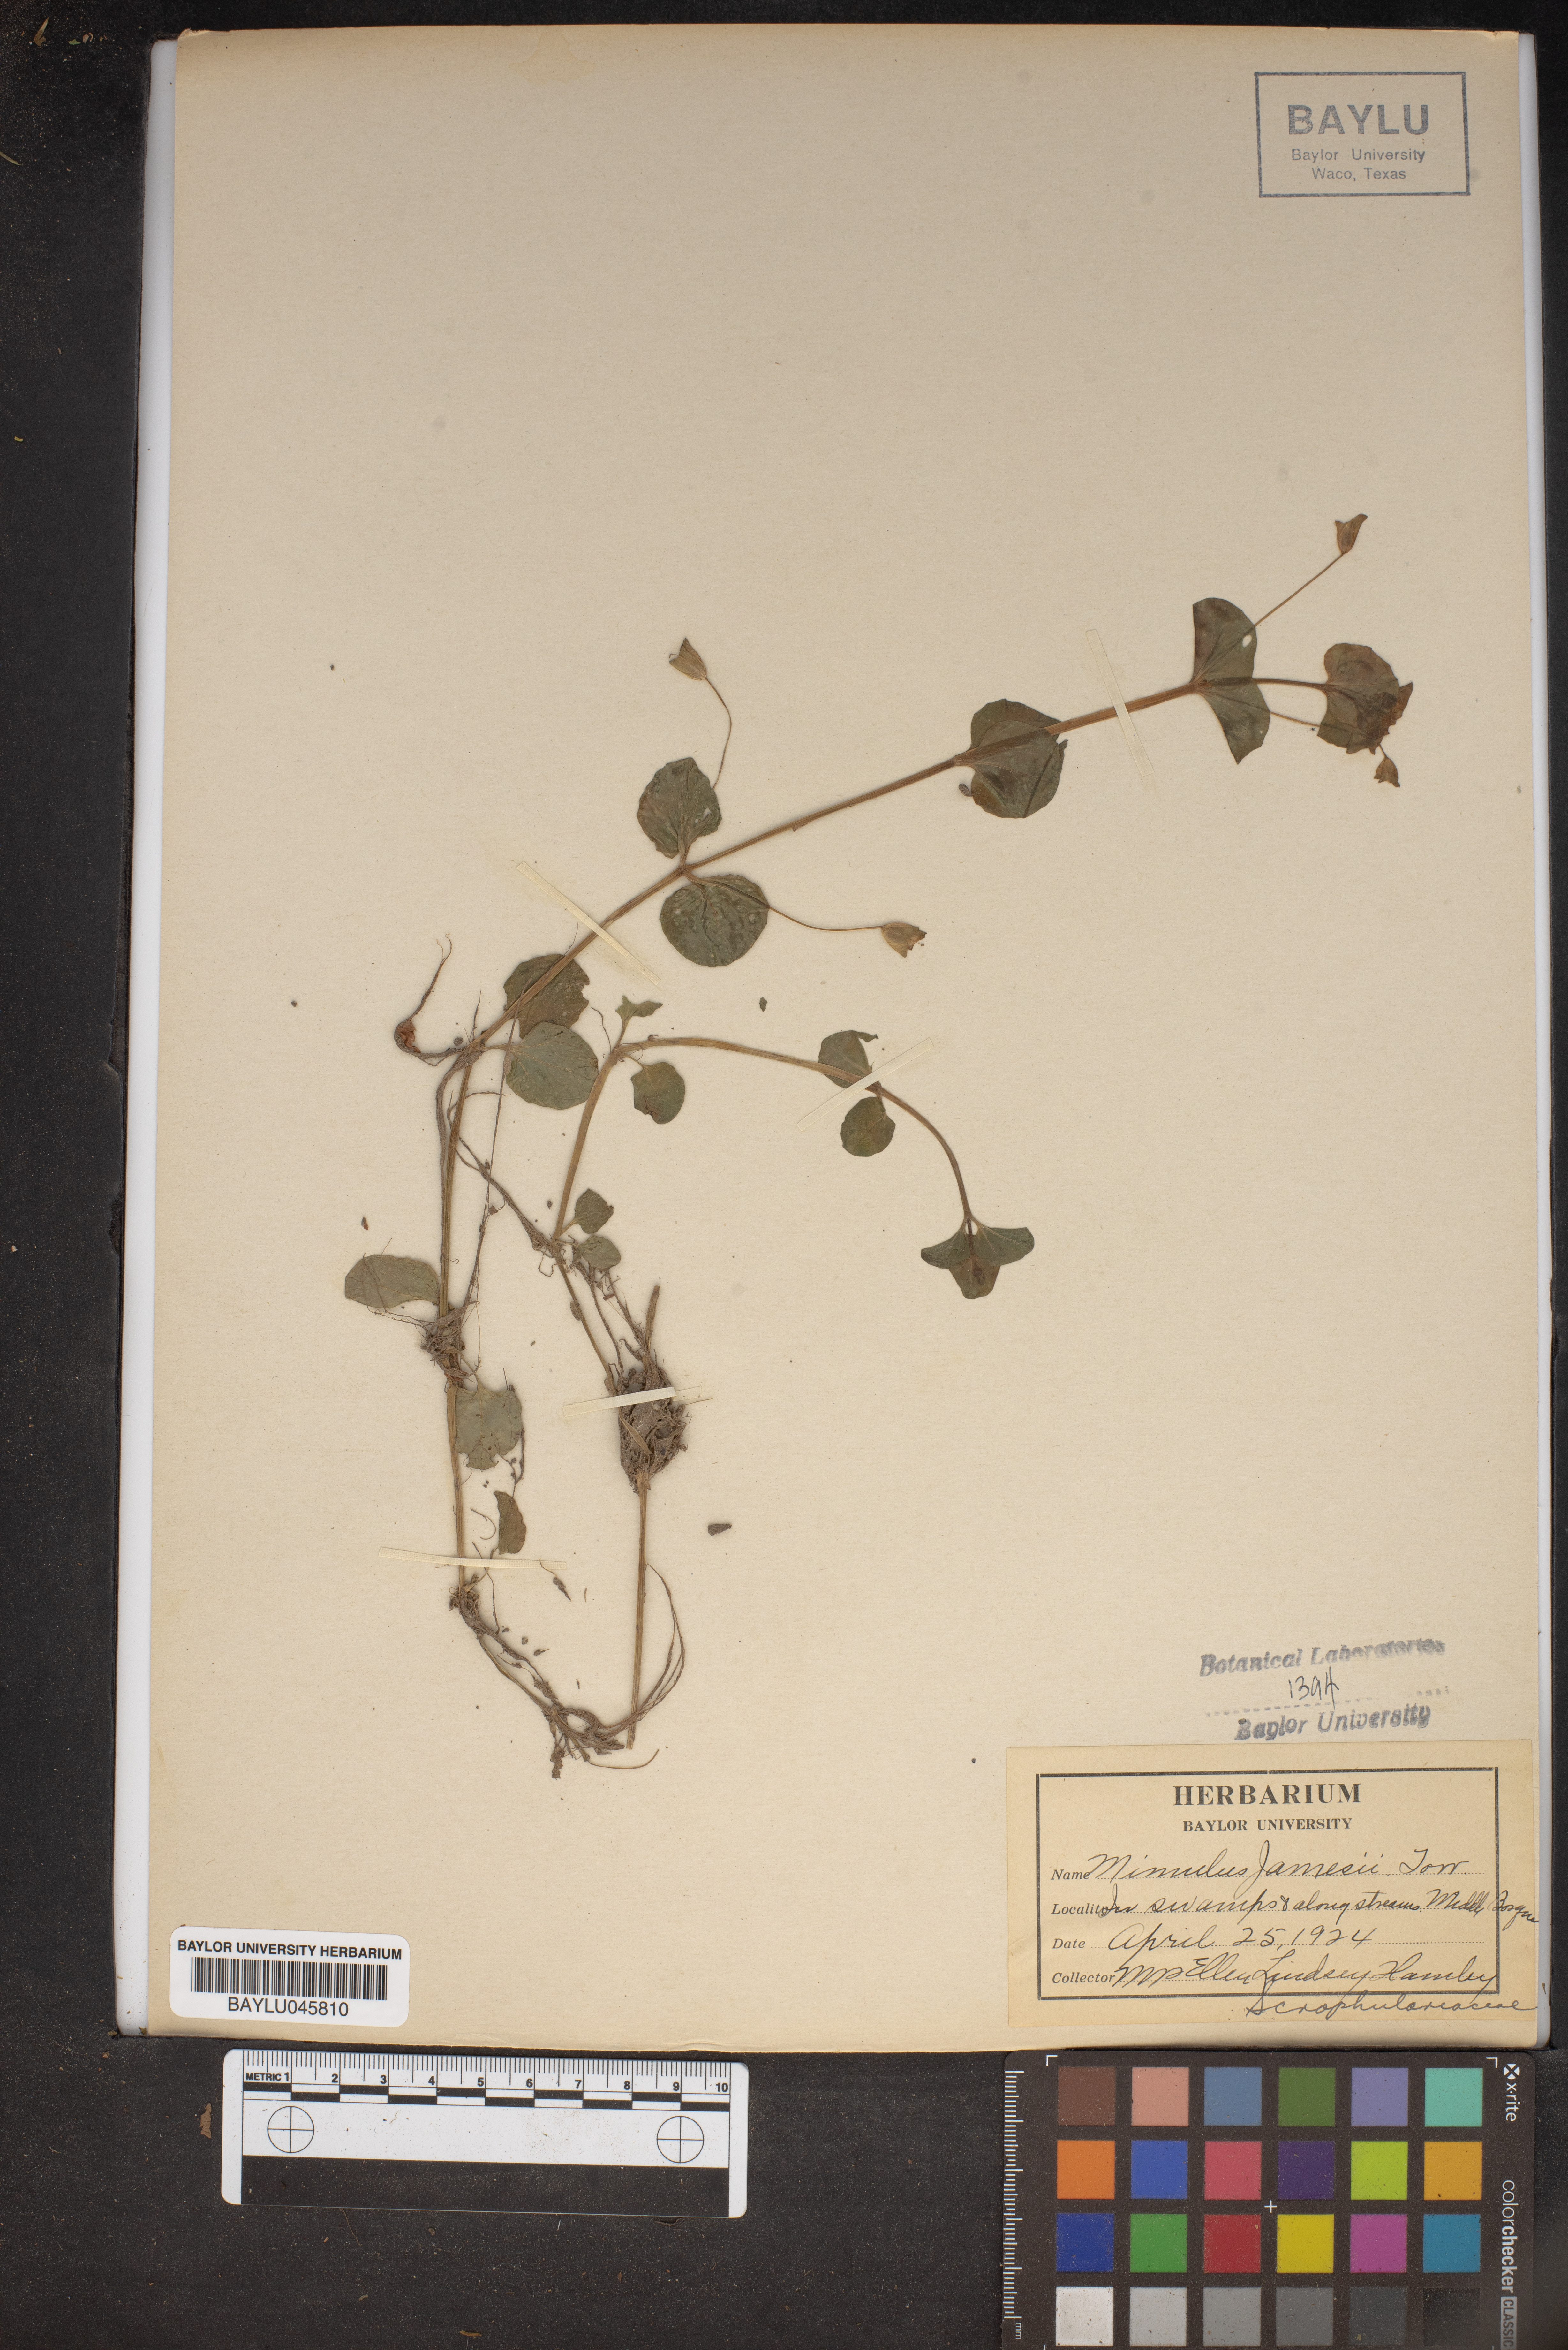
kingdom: Plantae
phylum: Tracheophyta
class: Magnoliopsida
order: Lamiales
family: Phrymaceae
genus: Erythranthe
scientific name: Erythranthe geyeri
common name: Geyer's monkeyflower
